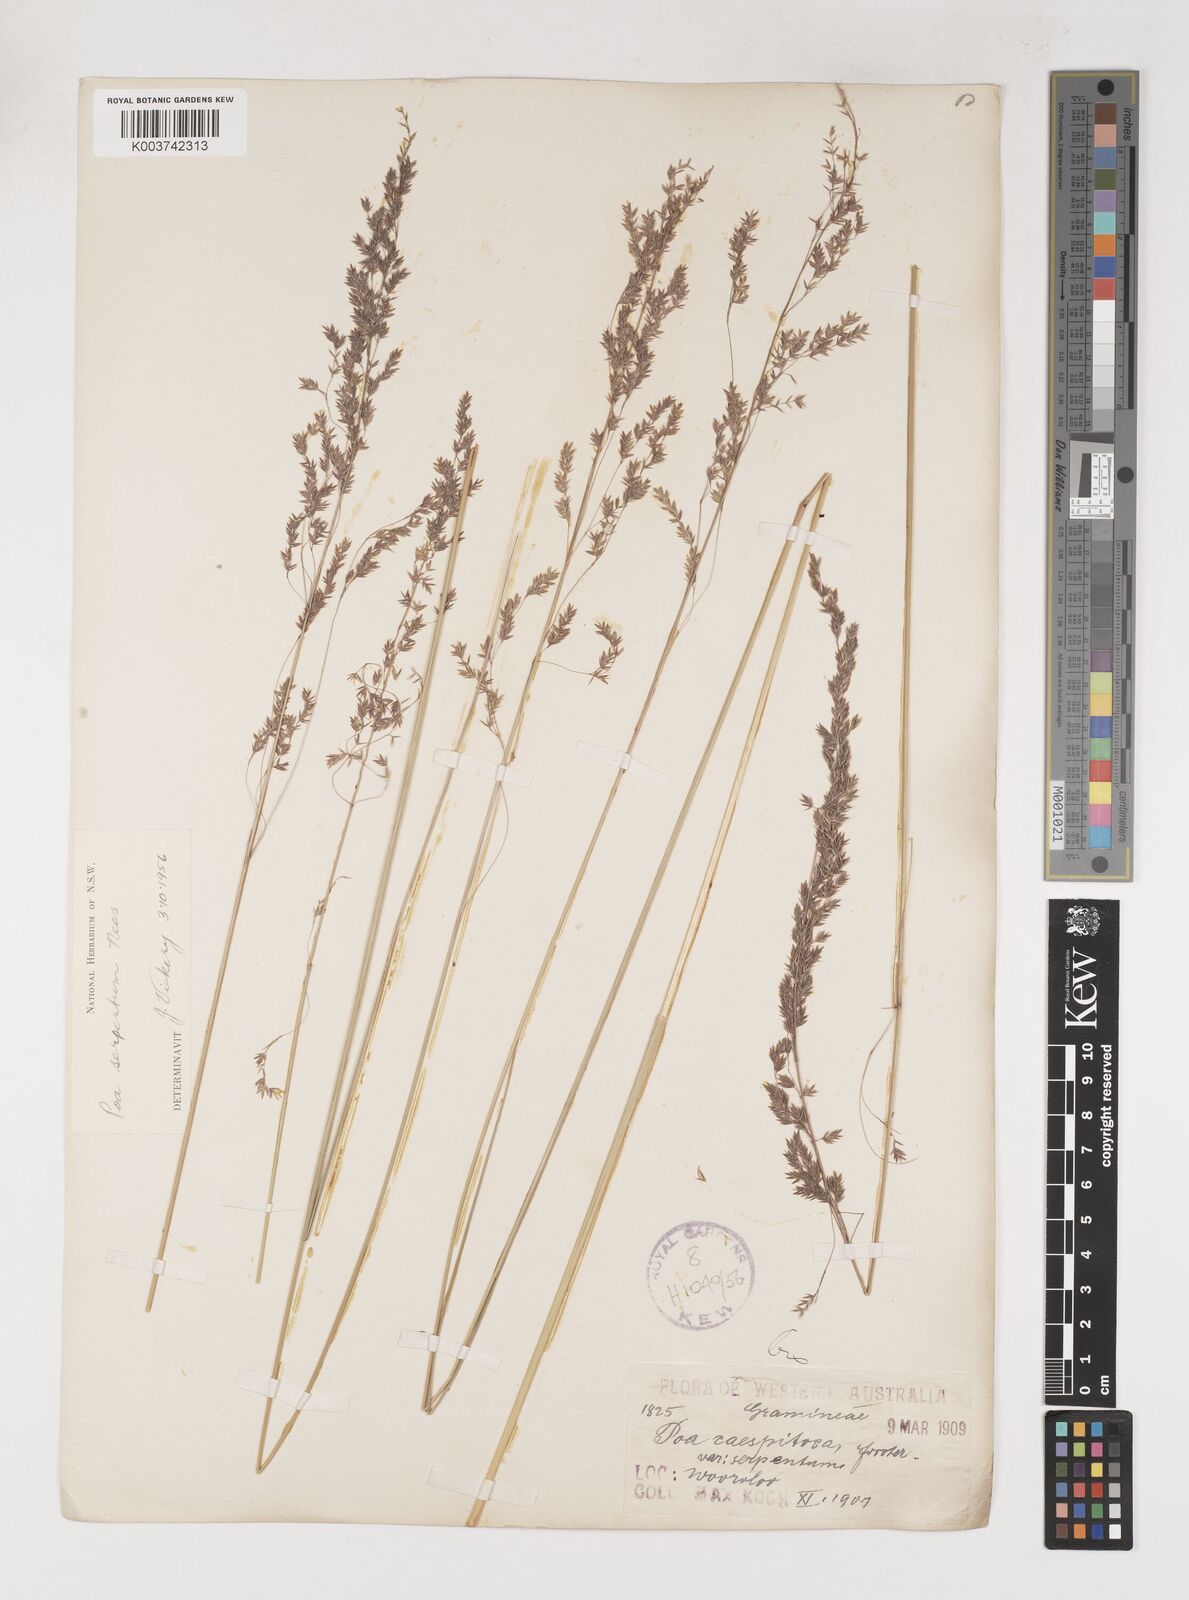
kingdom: Plantae
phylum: Tracheophyta
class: Liliopsida
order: Poales
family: Poaceae
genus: Poa
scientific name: Poa porphyroclados
